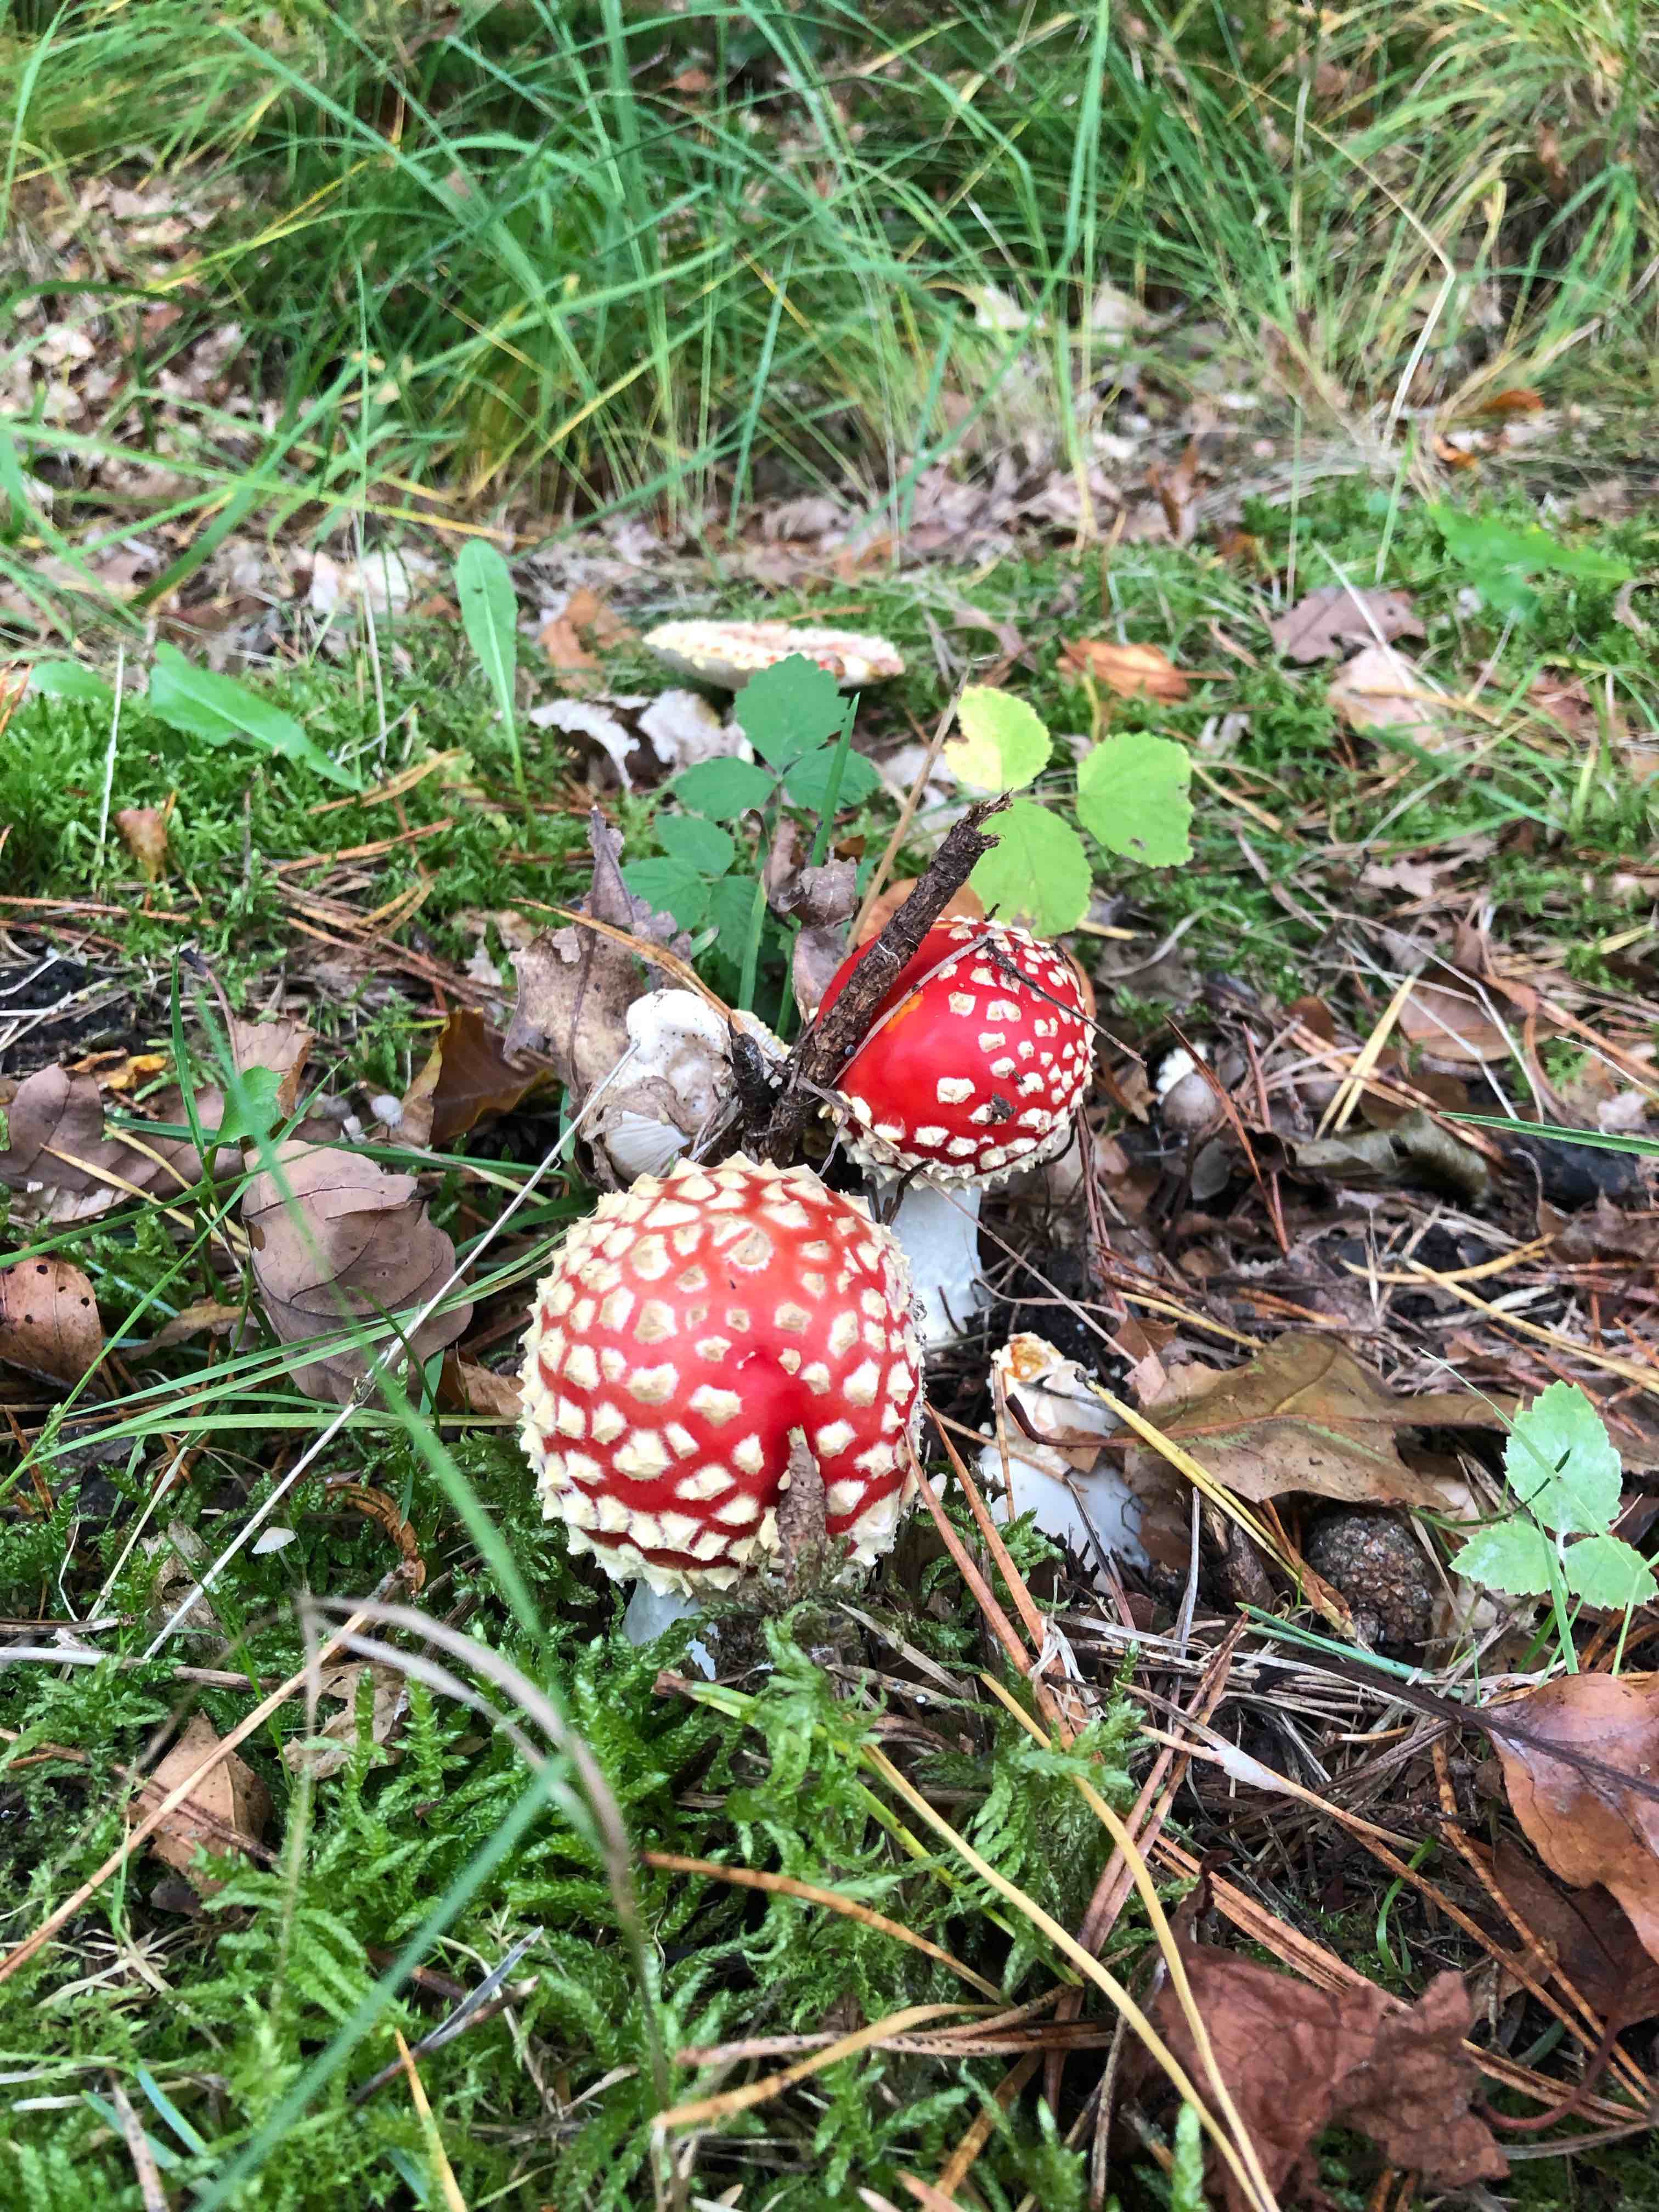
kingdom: Fungi
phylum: Basidiomycota
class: Agaricomycetes
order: Agaricales
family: Amanitaceae
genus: Amanita
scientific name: Amanita muscaria
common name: rød fluesvamp
